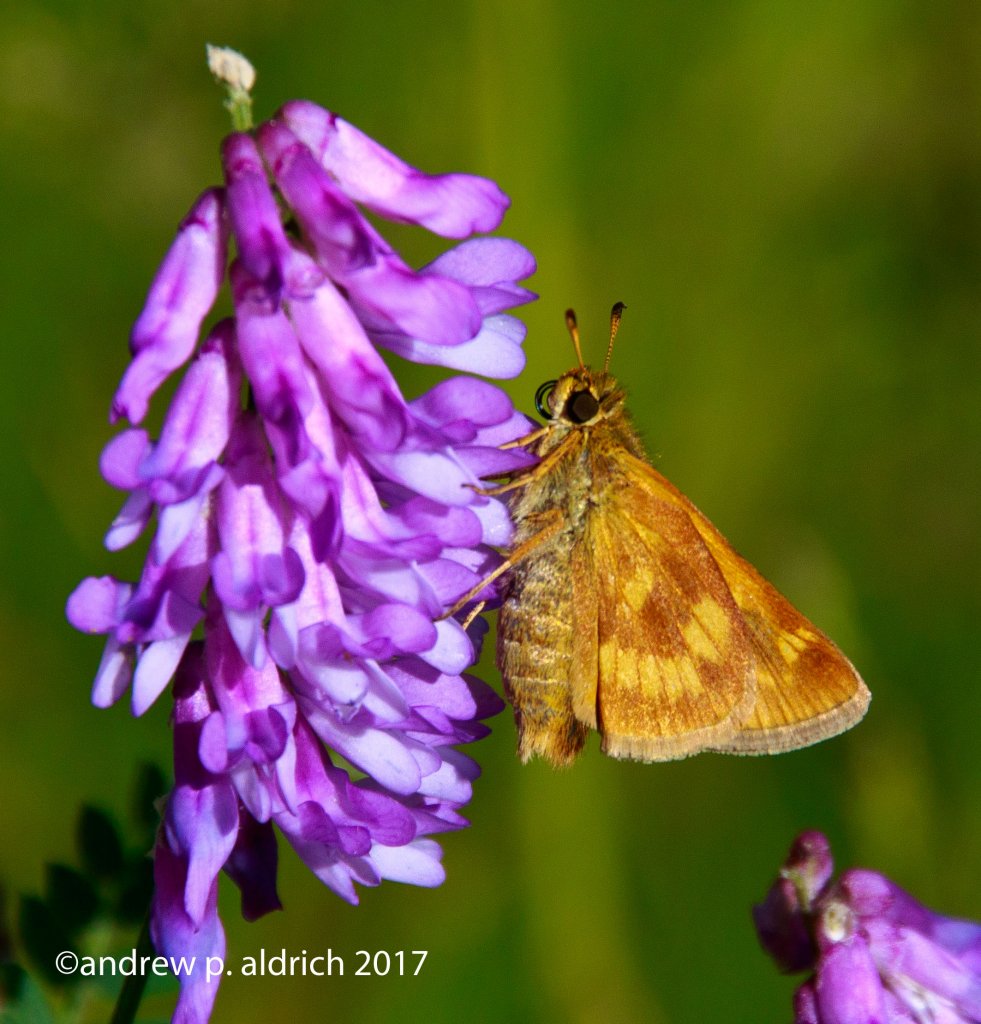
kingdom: Animalia
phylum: Arthropoda
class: Insecta
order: Lepidoptera
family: Hesperiidae
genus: Polites
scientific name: Polites
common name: Long Dash Skipper
